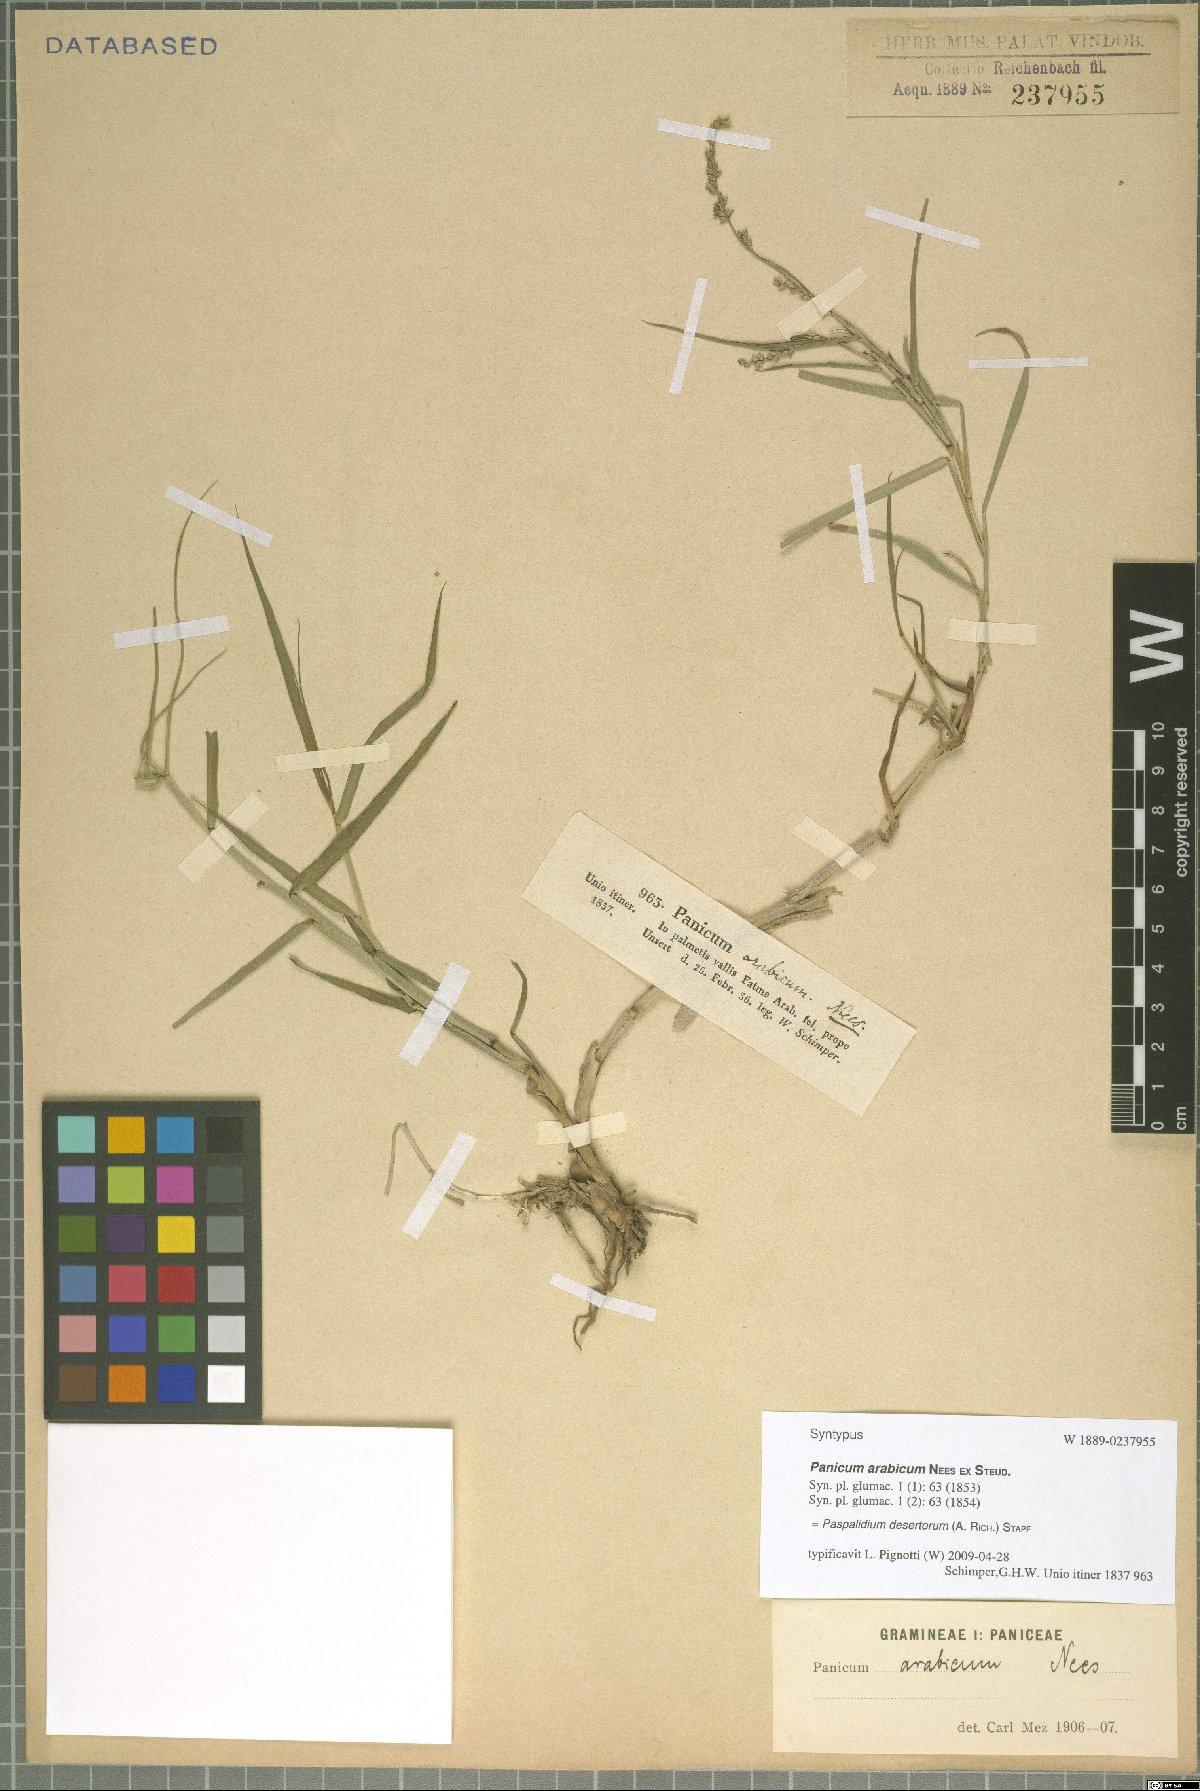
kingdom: Plantae
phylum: Tracheophyta
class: Liliopsida
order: Poales
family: Poaceae
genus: Setaria
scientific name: Setaria desertorum
